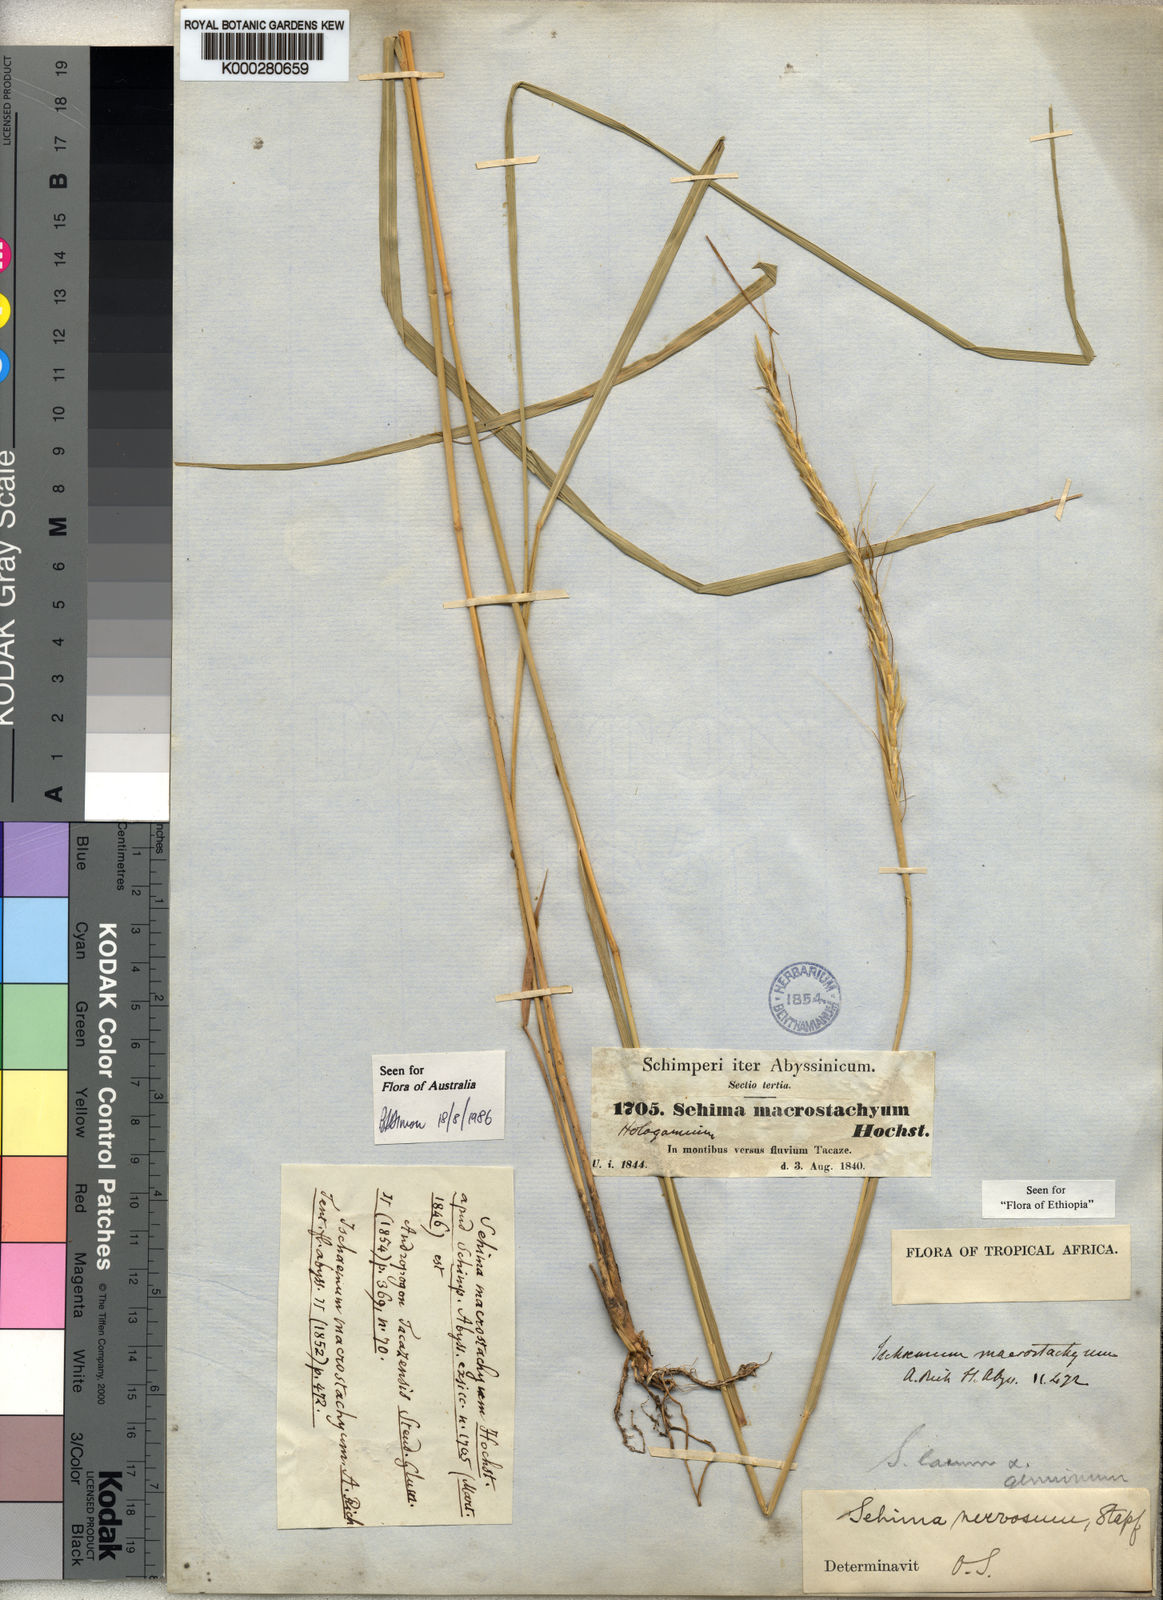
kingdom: Plantae
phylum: Tracheophyta
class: Liliopsida
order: Poales
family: Poaceae
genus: Sehima
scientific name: Sehima nervosa
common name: Rat-tail grass
